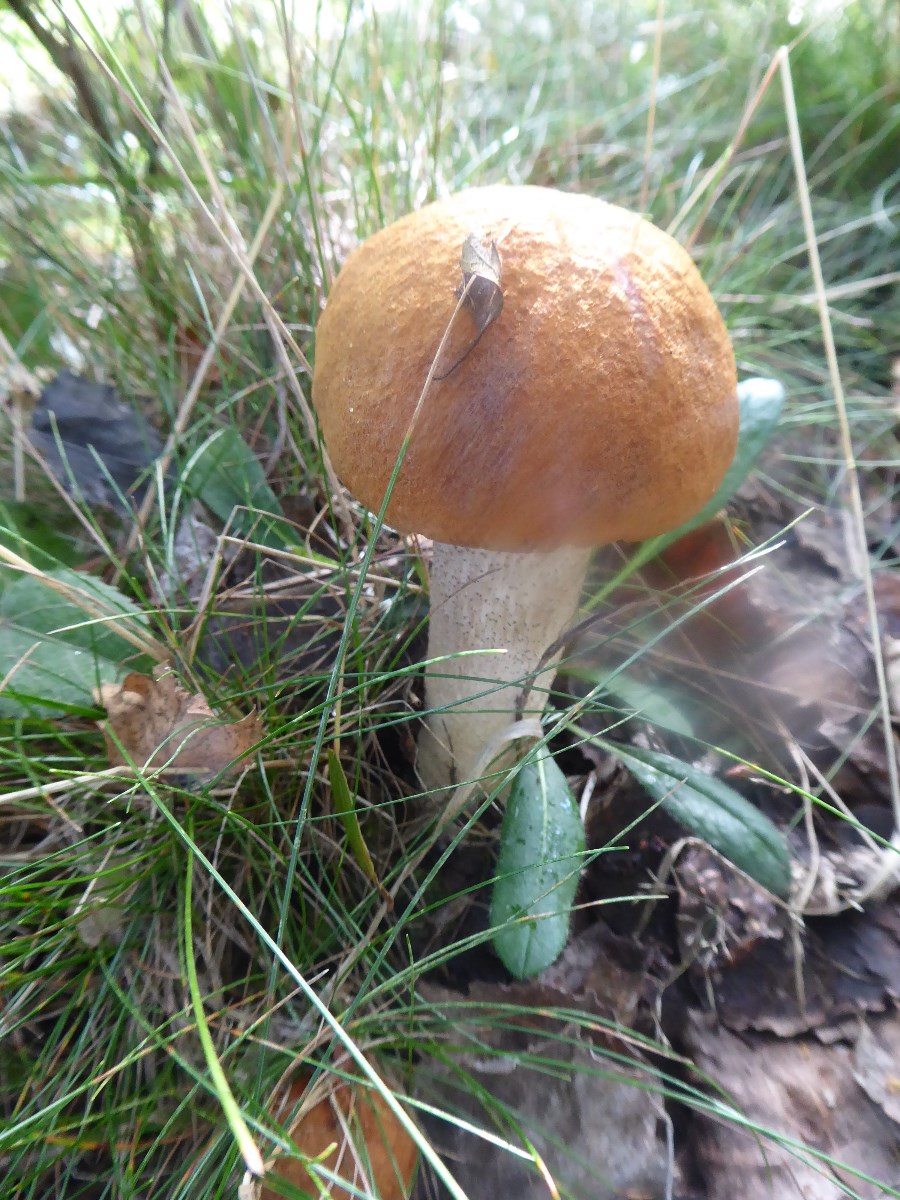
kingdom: Fungi
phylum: Basidiomycota
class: Agaricomycetes
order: Boletales
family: Boletaceae
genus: Leccinum
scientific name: Leccinum versipelle
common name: orange skælrørhat
